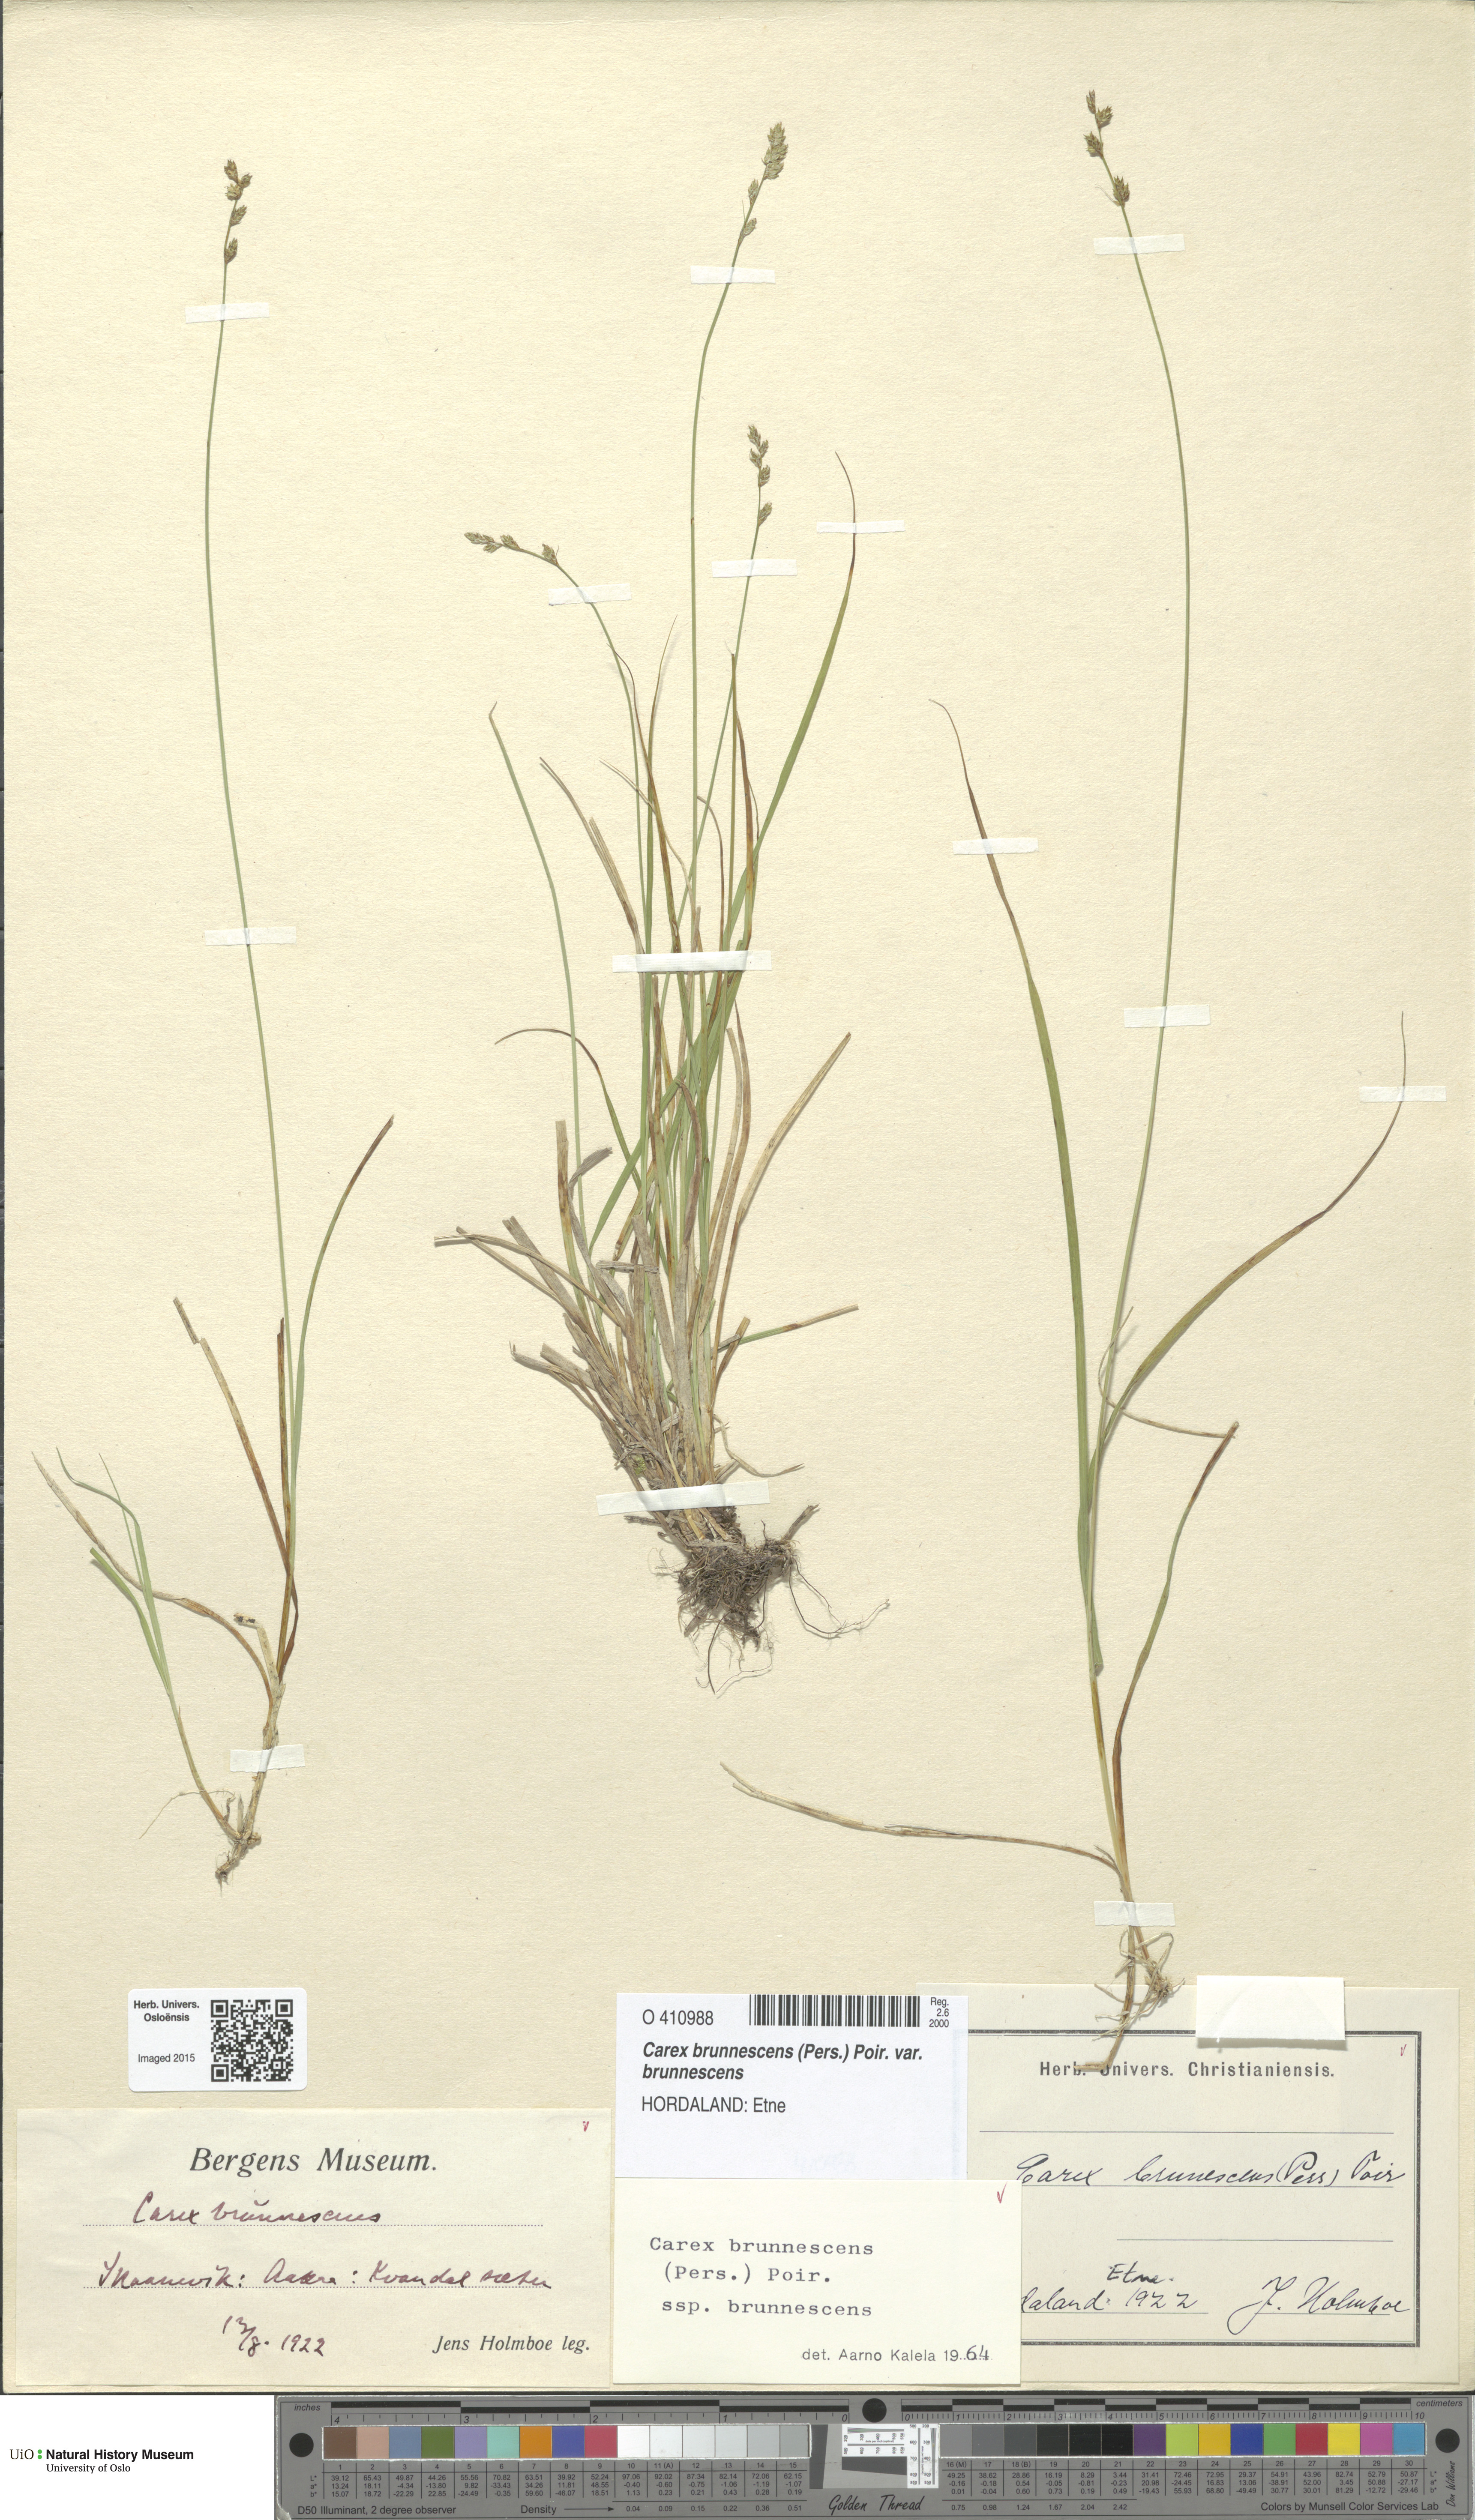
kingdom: Plantae
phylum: Tracheophyta
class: Liliopsida
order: Poales
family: Cyperaceae
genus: Carex
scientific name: Carex brunnescens
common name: Brown sedge
